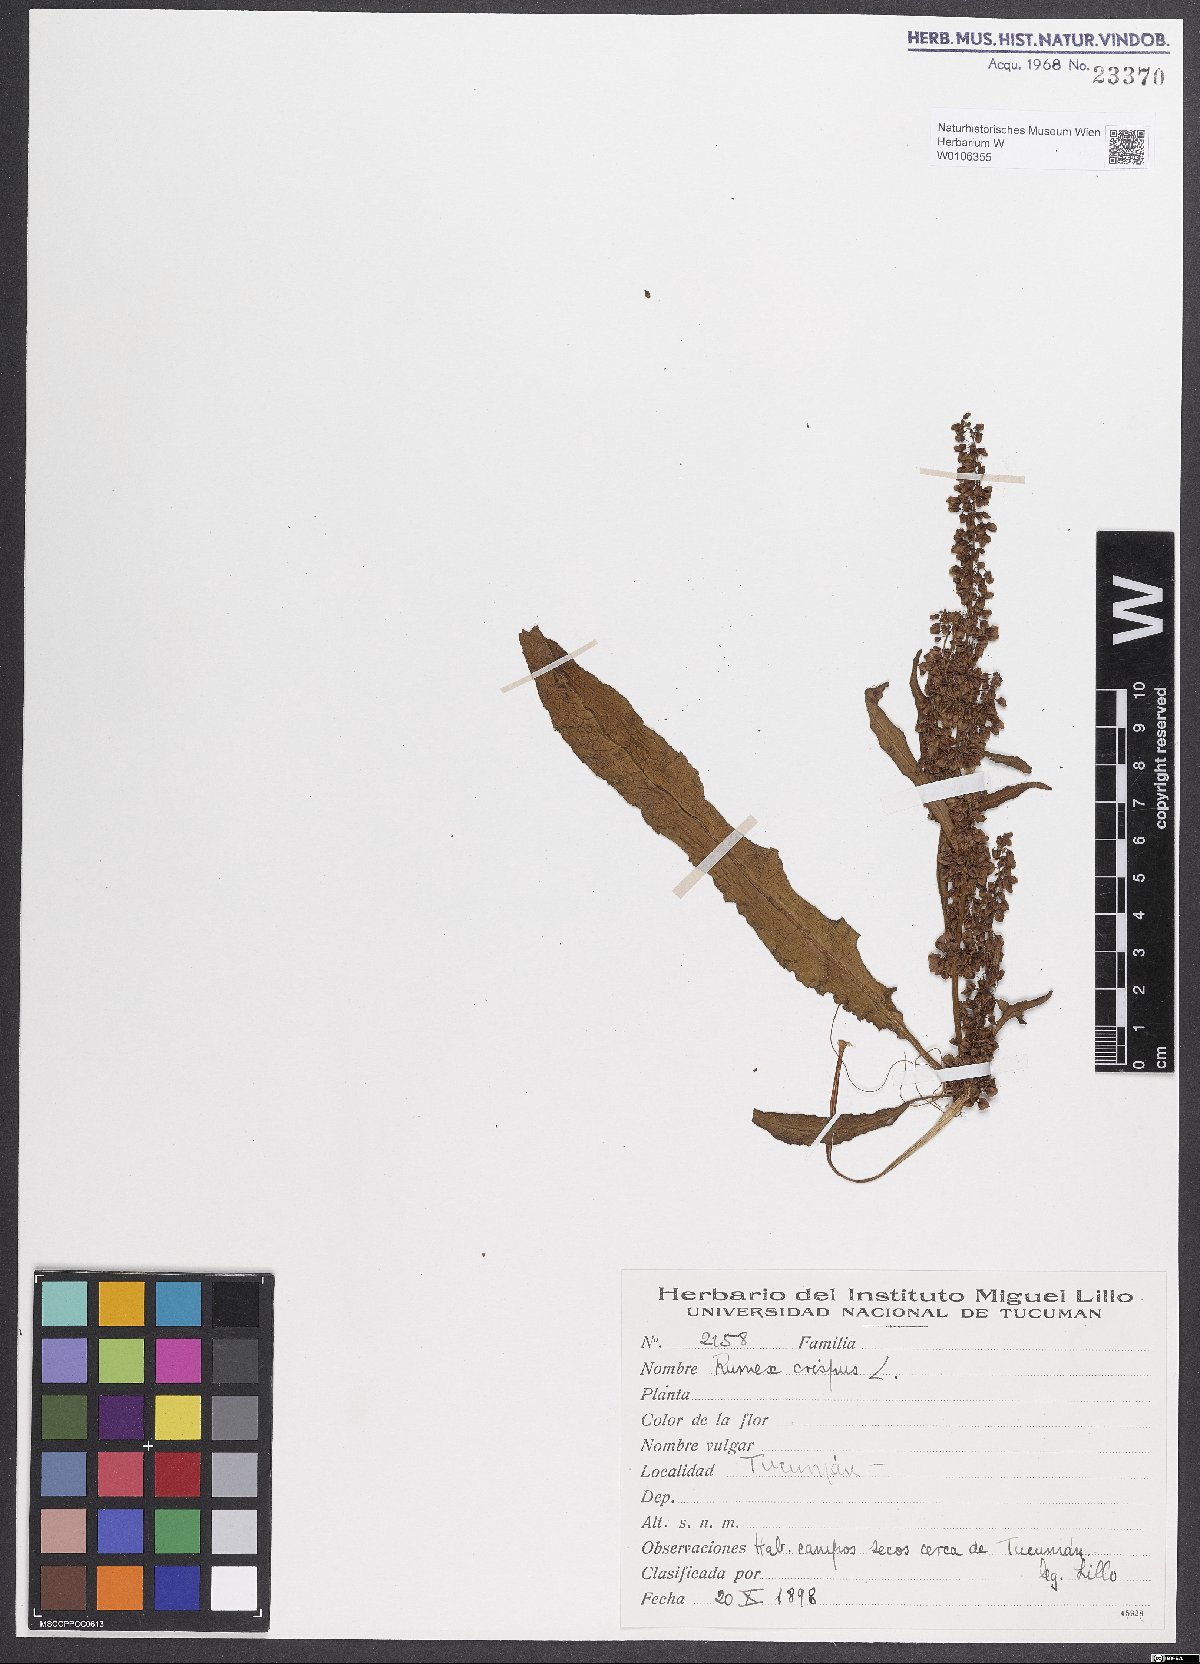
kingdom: Plantae
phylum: Tracheophyta
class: Magnoliopsida
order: Caryophyllales
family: Polygonaceae
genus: Rumex
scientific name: Rumex crispus
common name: Curled dock
